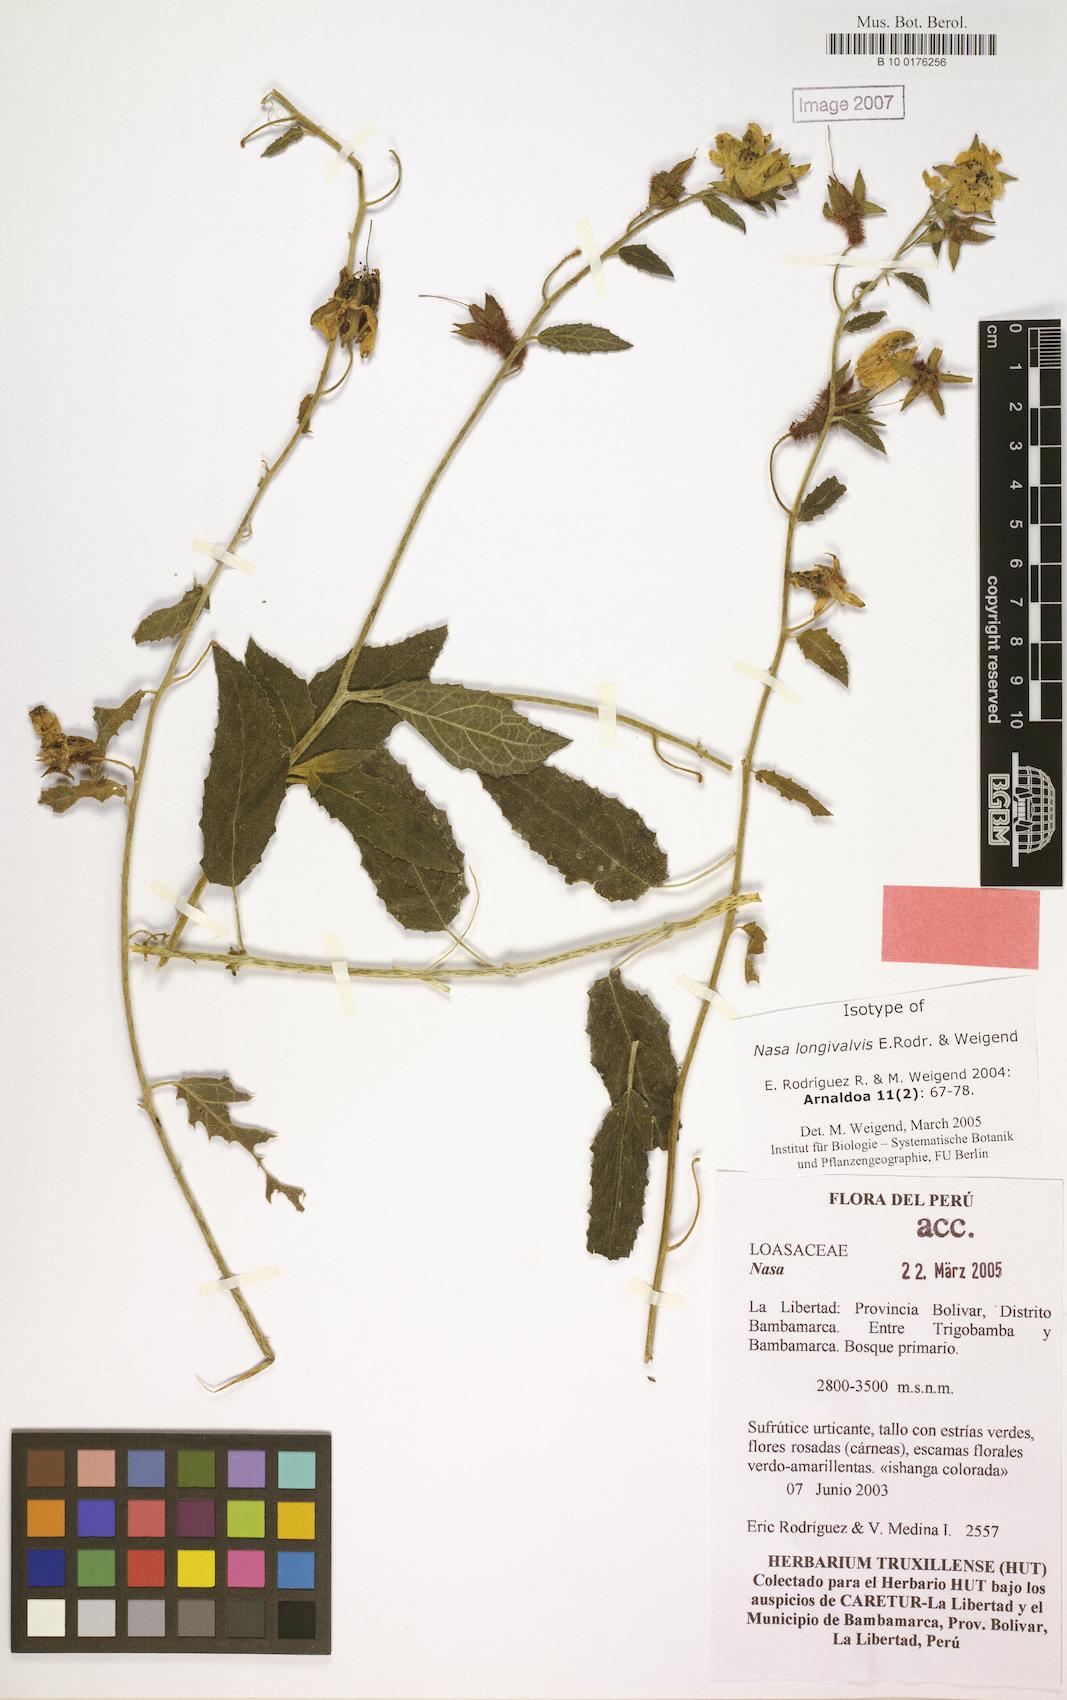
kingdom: Plantae
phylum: Tracheophyta
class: Magnoliopsida
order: Cornales
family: Loasaceae
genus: Nasa
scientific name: Nasa longivalvis
